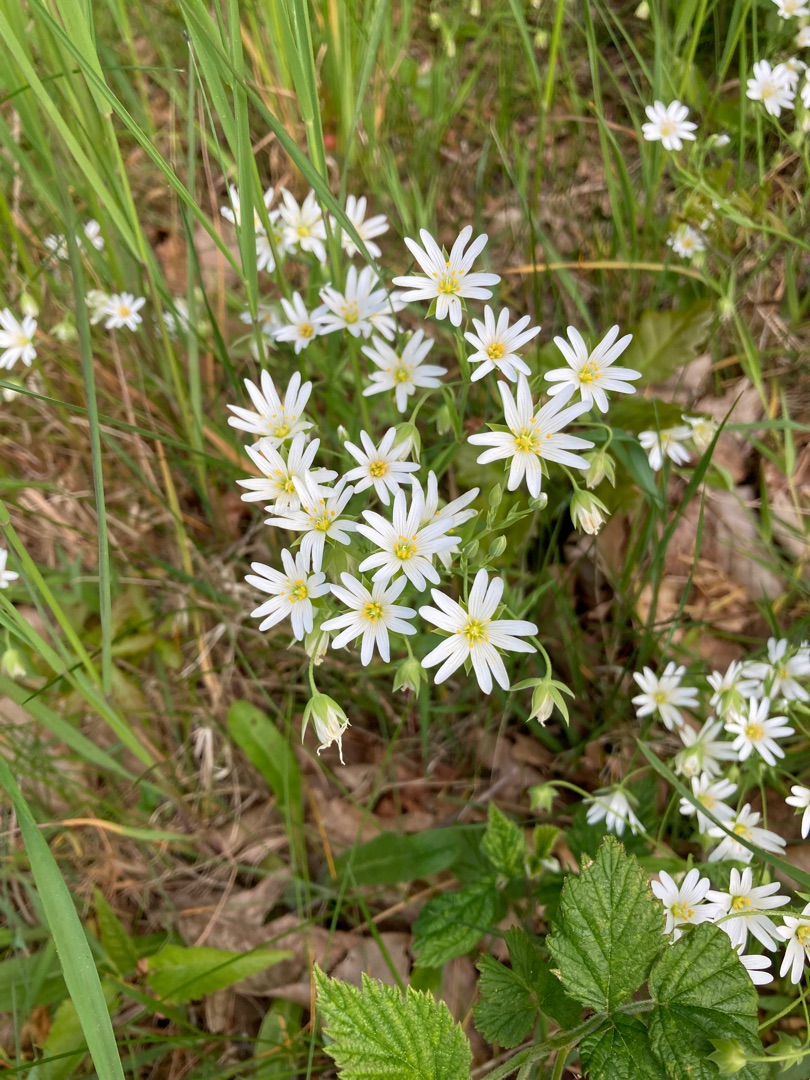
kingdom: Plantae
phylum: Tracheophyta
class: Magnoliopsida
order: Caryophyllales
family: Caryophyllaceae
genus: Rabelera
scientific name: Rabelera holostea
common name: Stor fladstjerne
